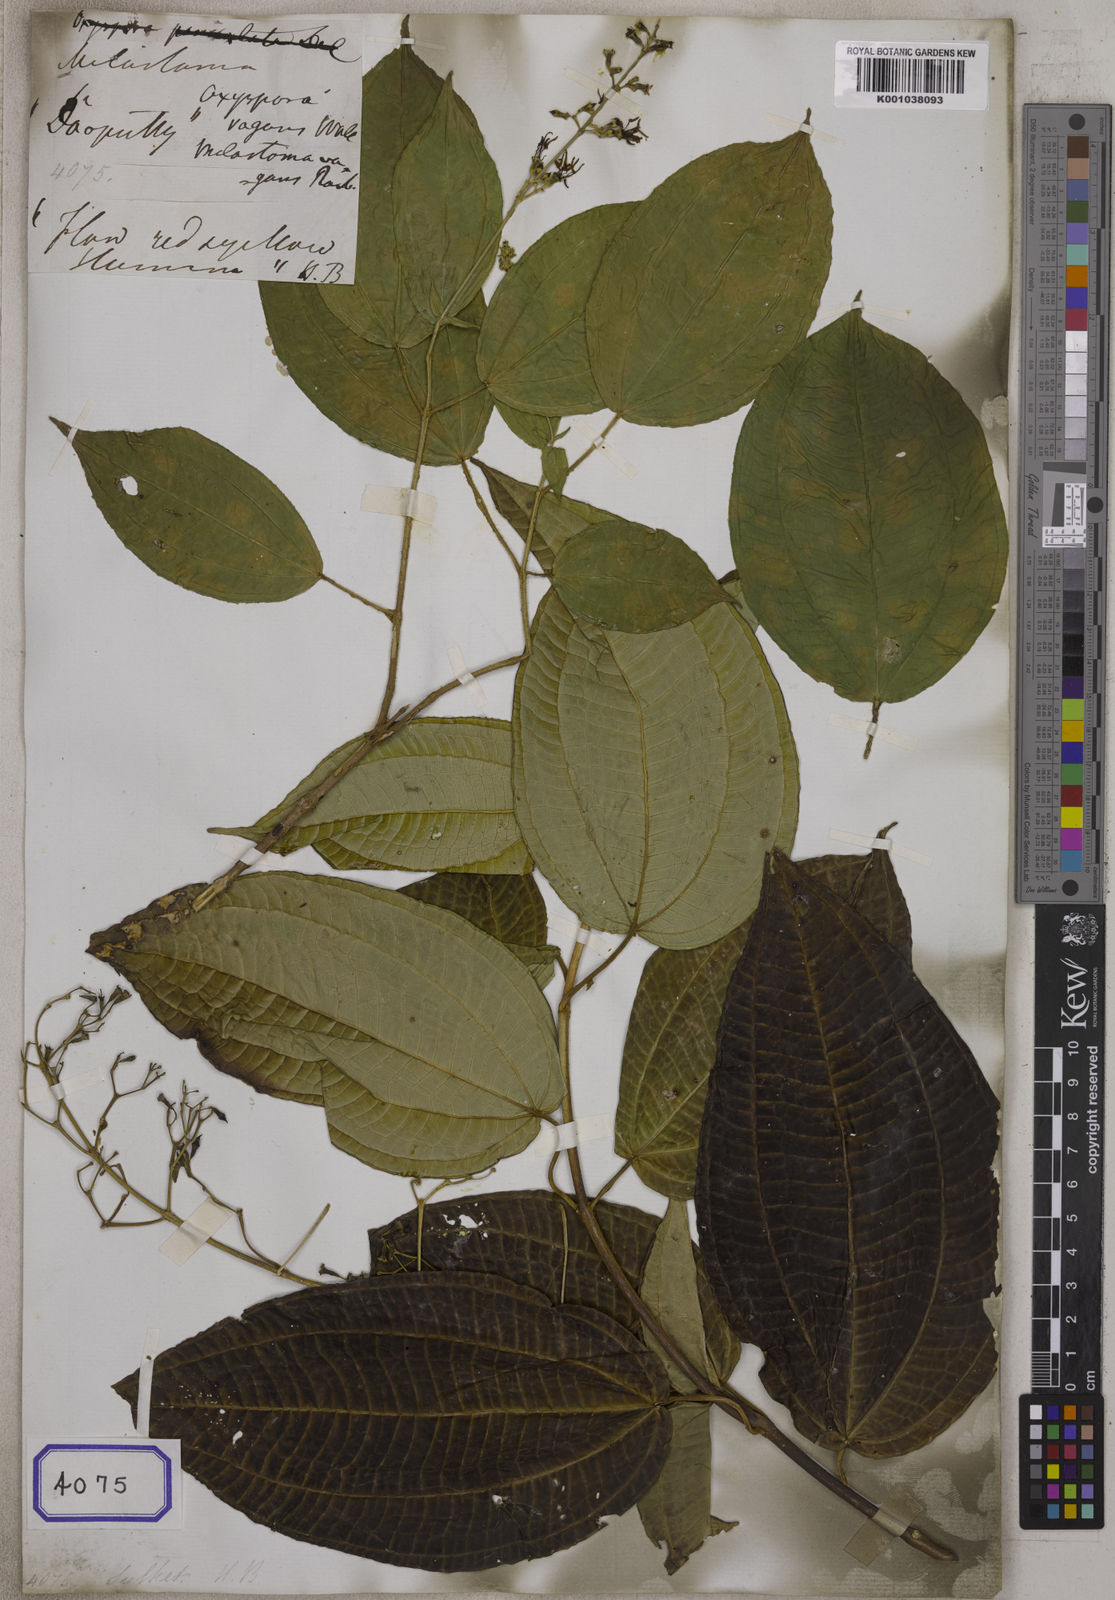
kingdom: Plantae
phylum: Tracheophyta
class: Magnoliopsida
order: Myrtales
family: Melastomataceae
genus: Oxyspora
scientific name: Oxyspora vagans
